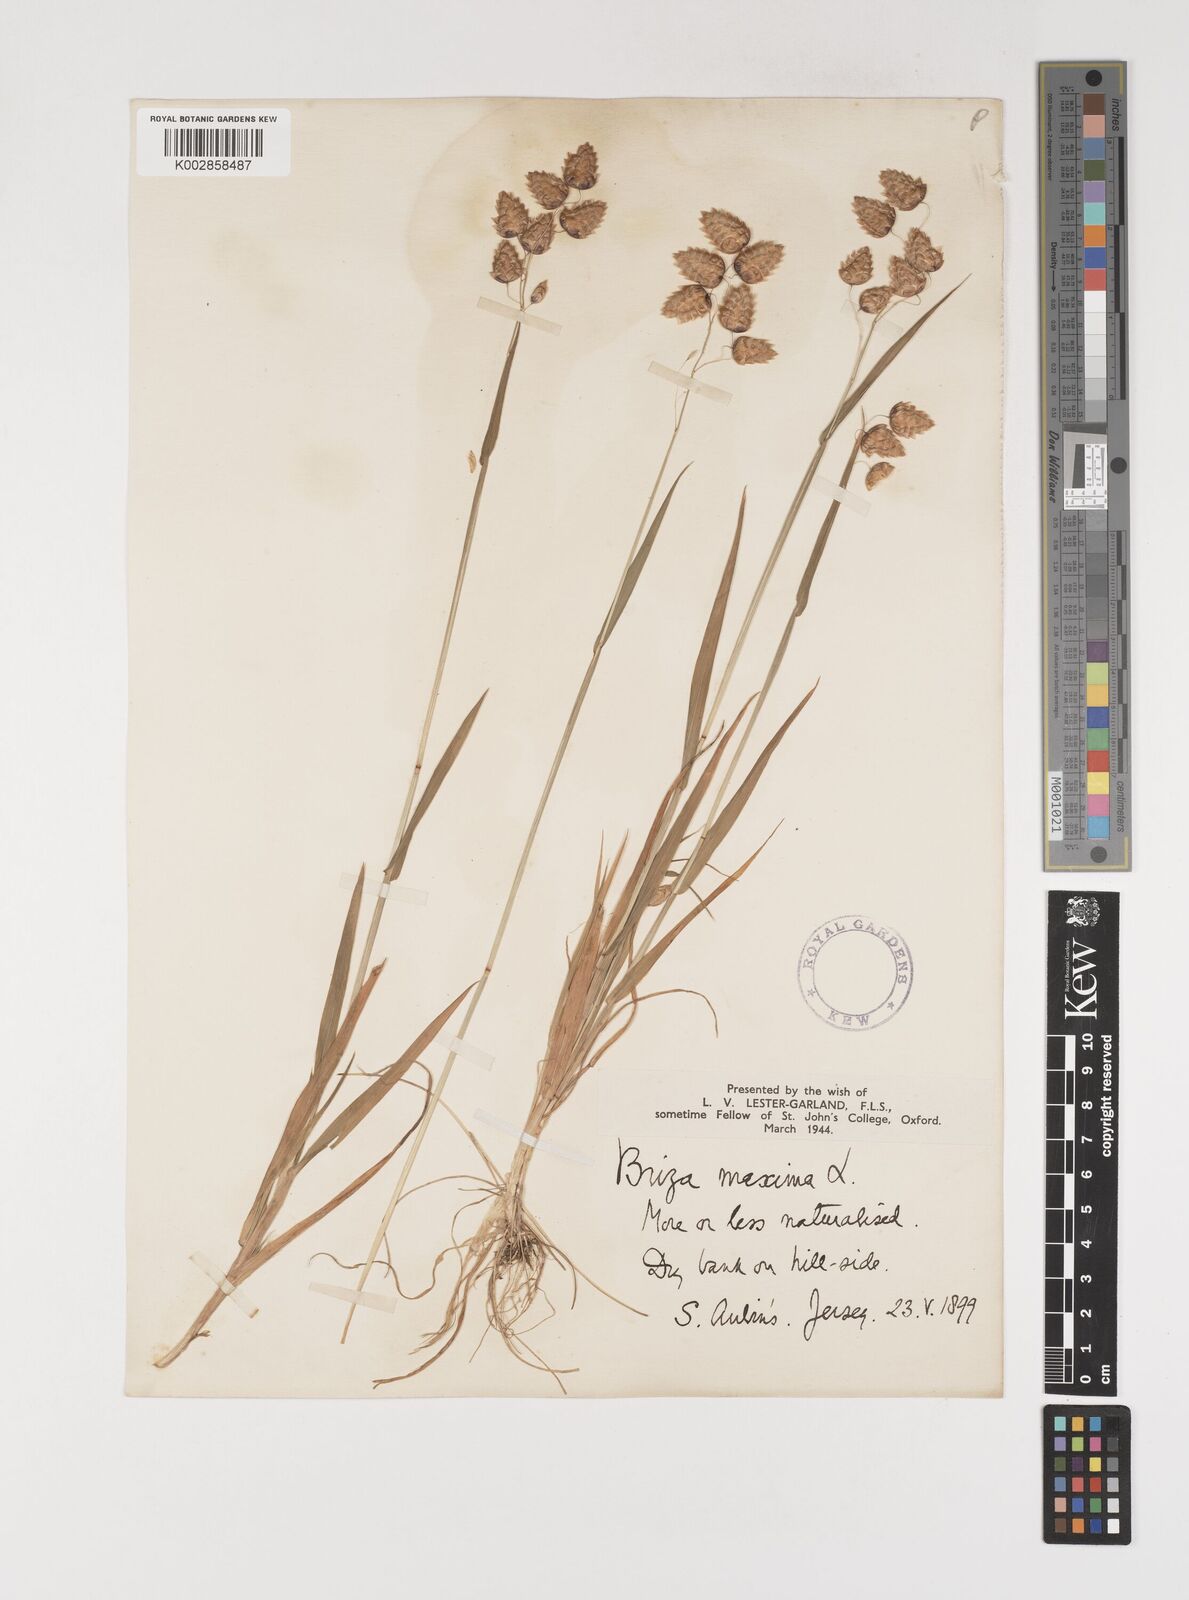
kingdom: Plantae
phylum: Tracheophyta
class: Liliopsida
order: Poales
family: Poaceae
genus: Briza
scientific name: Briza maxima
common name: Big quakinggrass
